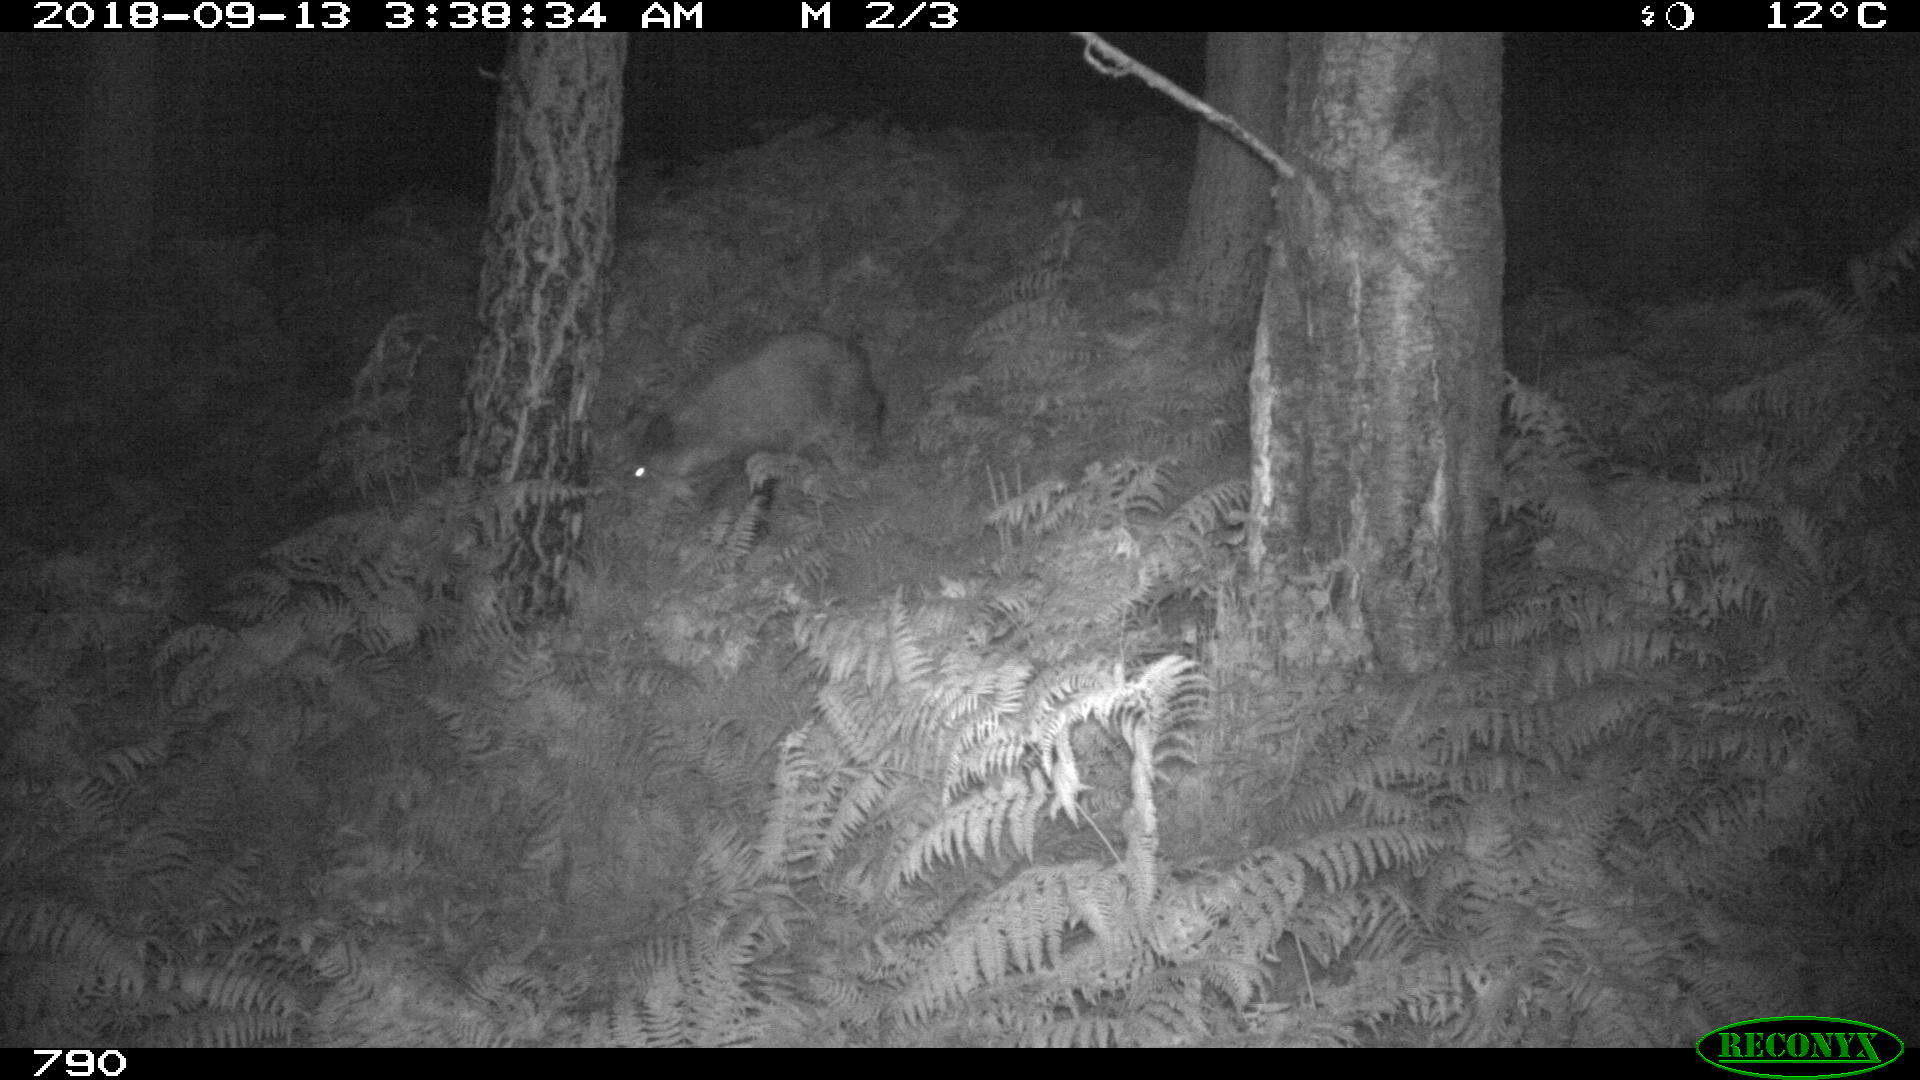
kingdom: Animalia
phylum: Chordata
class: Mammalia
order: Artiodactyla
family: Suidae
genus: Sus
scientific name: Sus scrofa
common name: Wild boar
